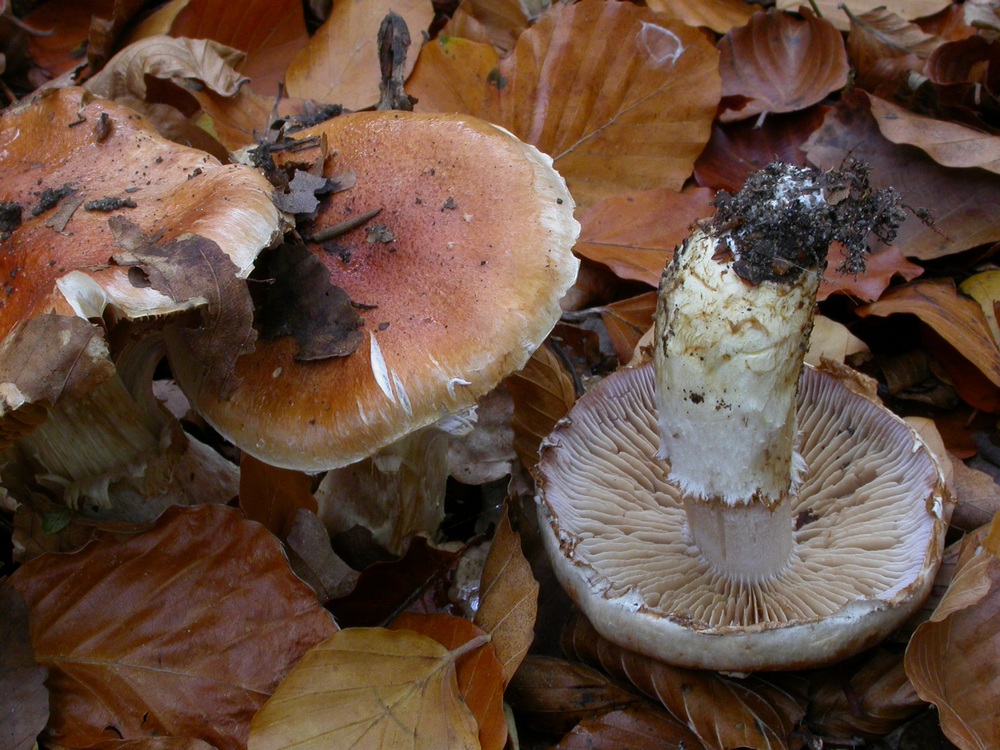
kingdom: Fungi
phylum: Basidiomycota
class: Agaricomycetes
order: Agaricales
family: Cortinariaceae
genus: Phlegmacium
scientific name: Phlegmacium vulpinum
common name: ringbæltet slørhat
